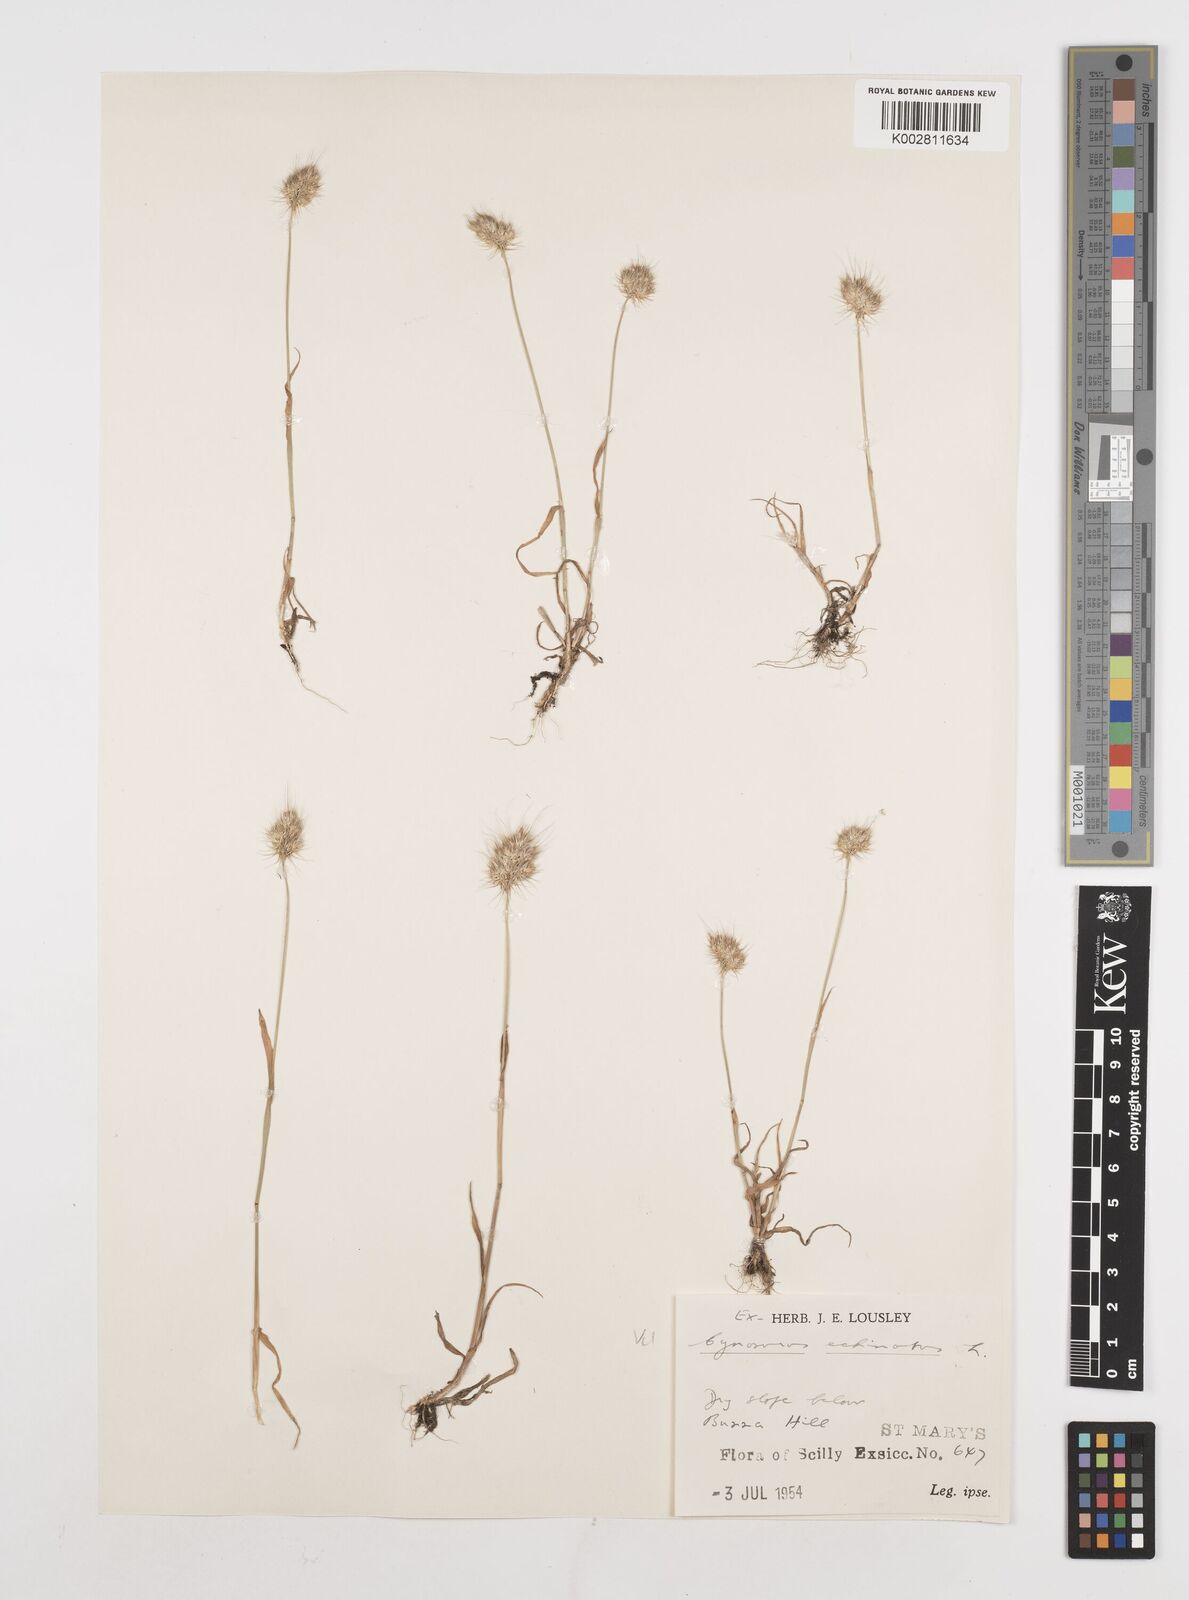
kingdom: Plantae
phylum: Tracheophyta
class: Liliopsida
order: Poales
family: Poaceae
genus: Cynosurus
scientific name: Cynosurus echinatus
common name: Rough dog's-tail
